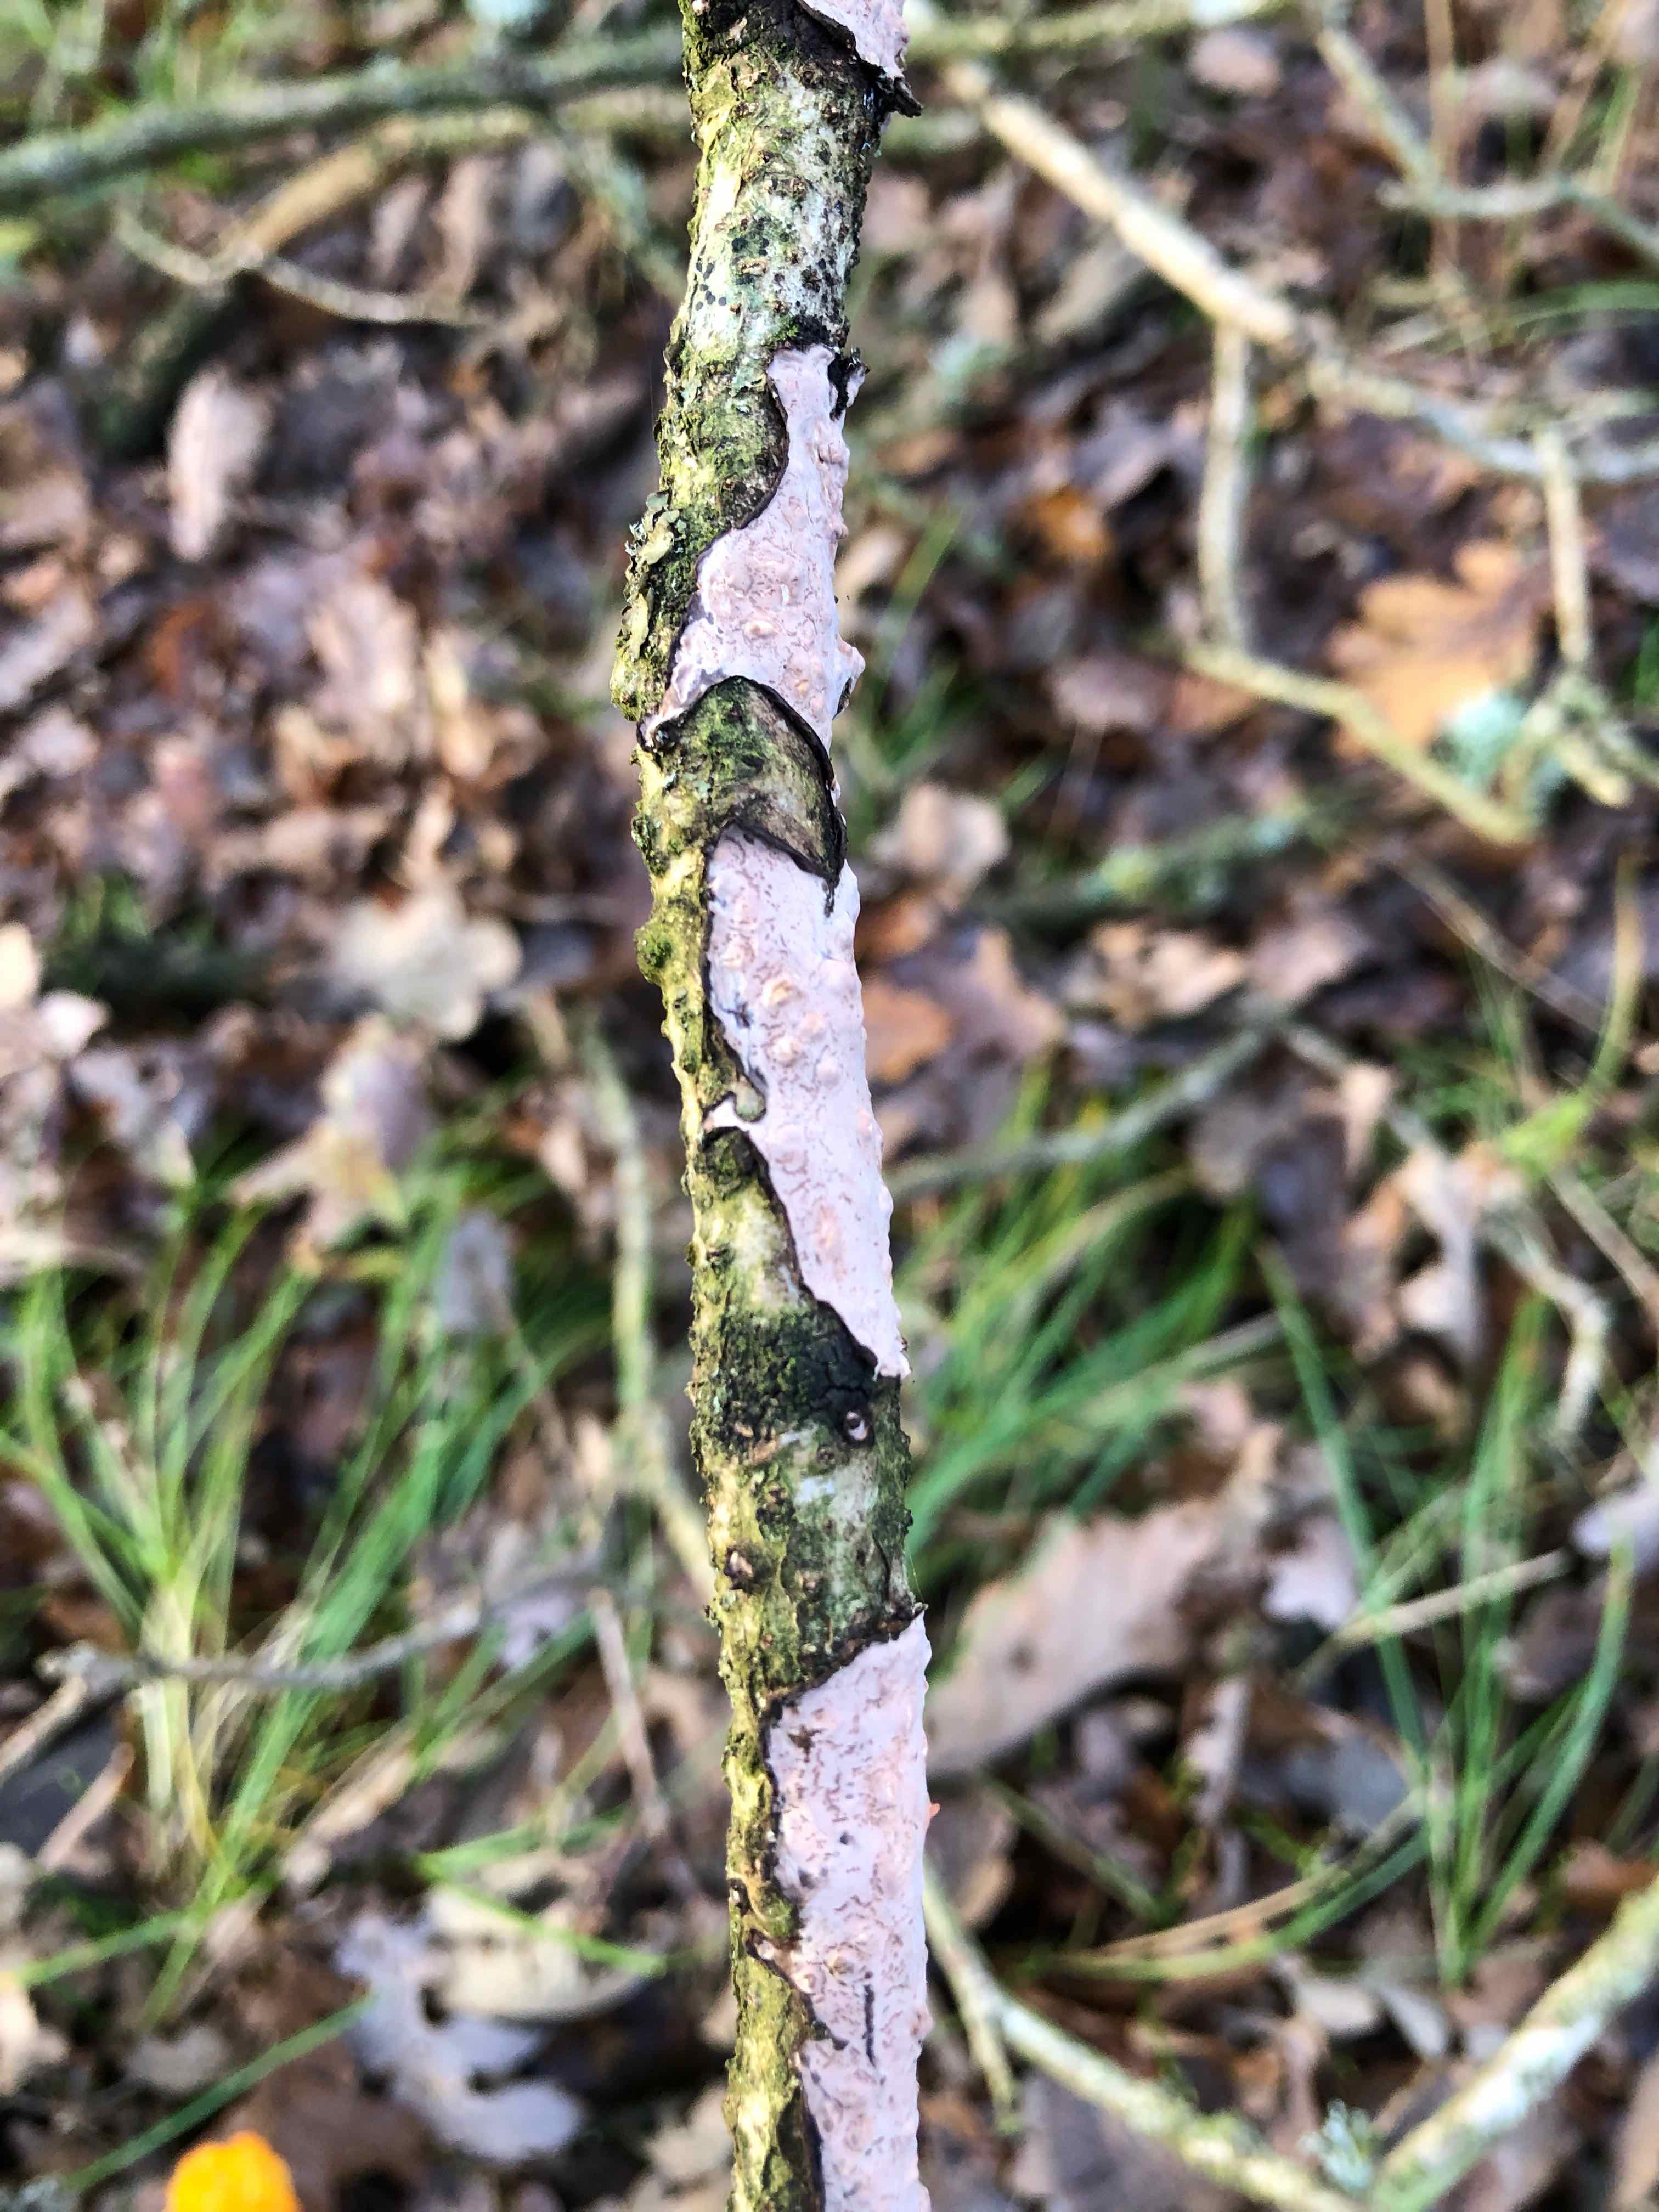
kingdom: Fungi
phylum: Basidiomycota
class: Agaricomycetes
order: Russulales
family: Peniophoraceae
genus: Peniophora
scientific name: Peniophora quercina
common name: ege-voksskind
